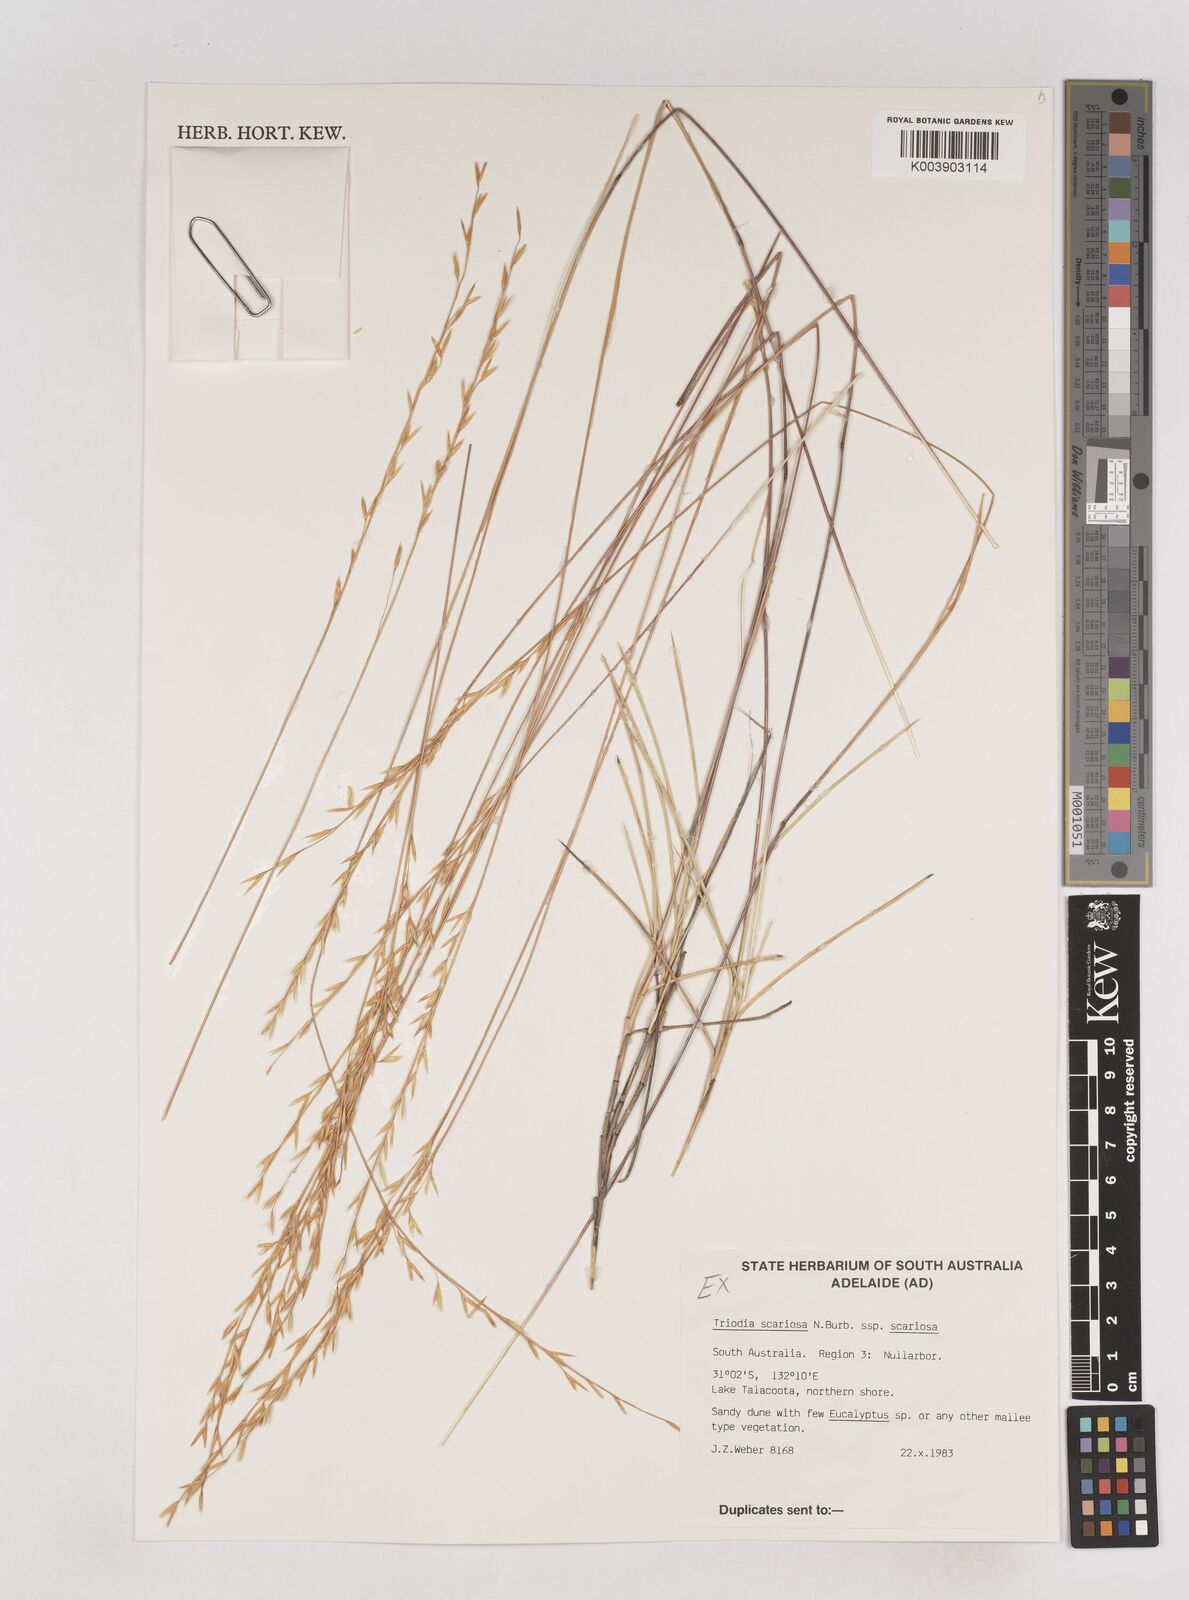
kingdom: Plantae
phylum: Tracheophyta
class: Liliopsida
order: Poales
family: Poaceae
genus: Triodia
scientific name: Triodia scariosa
